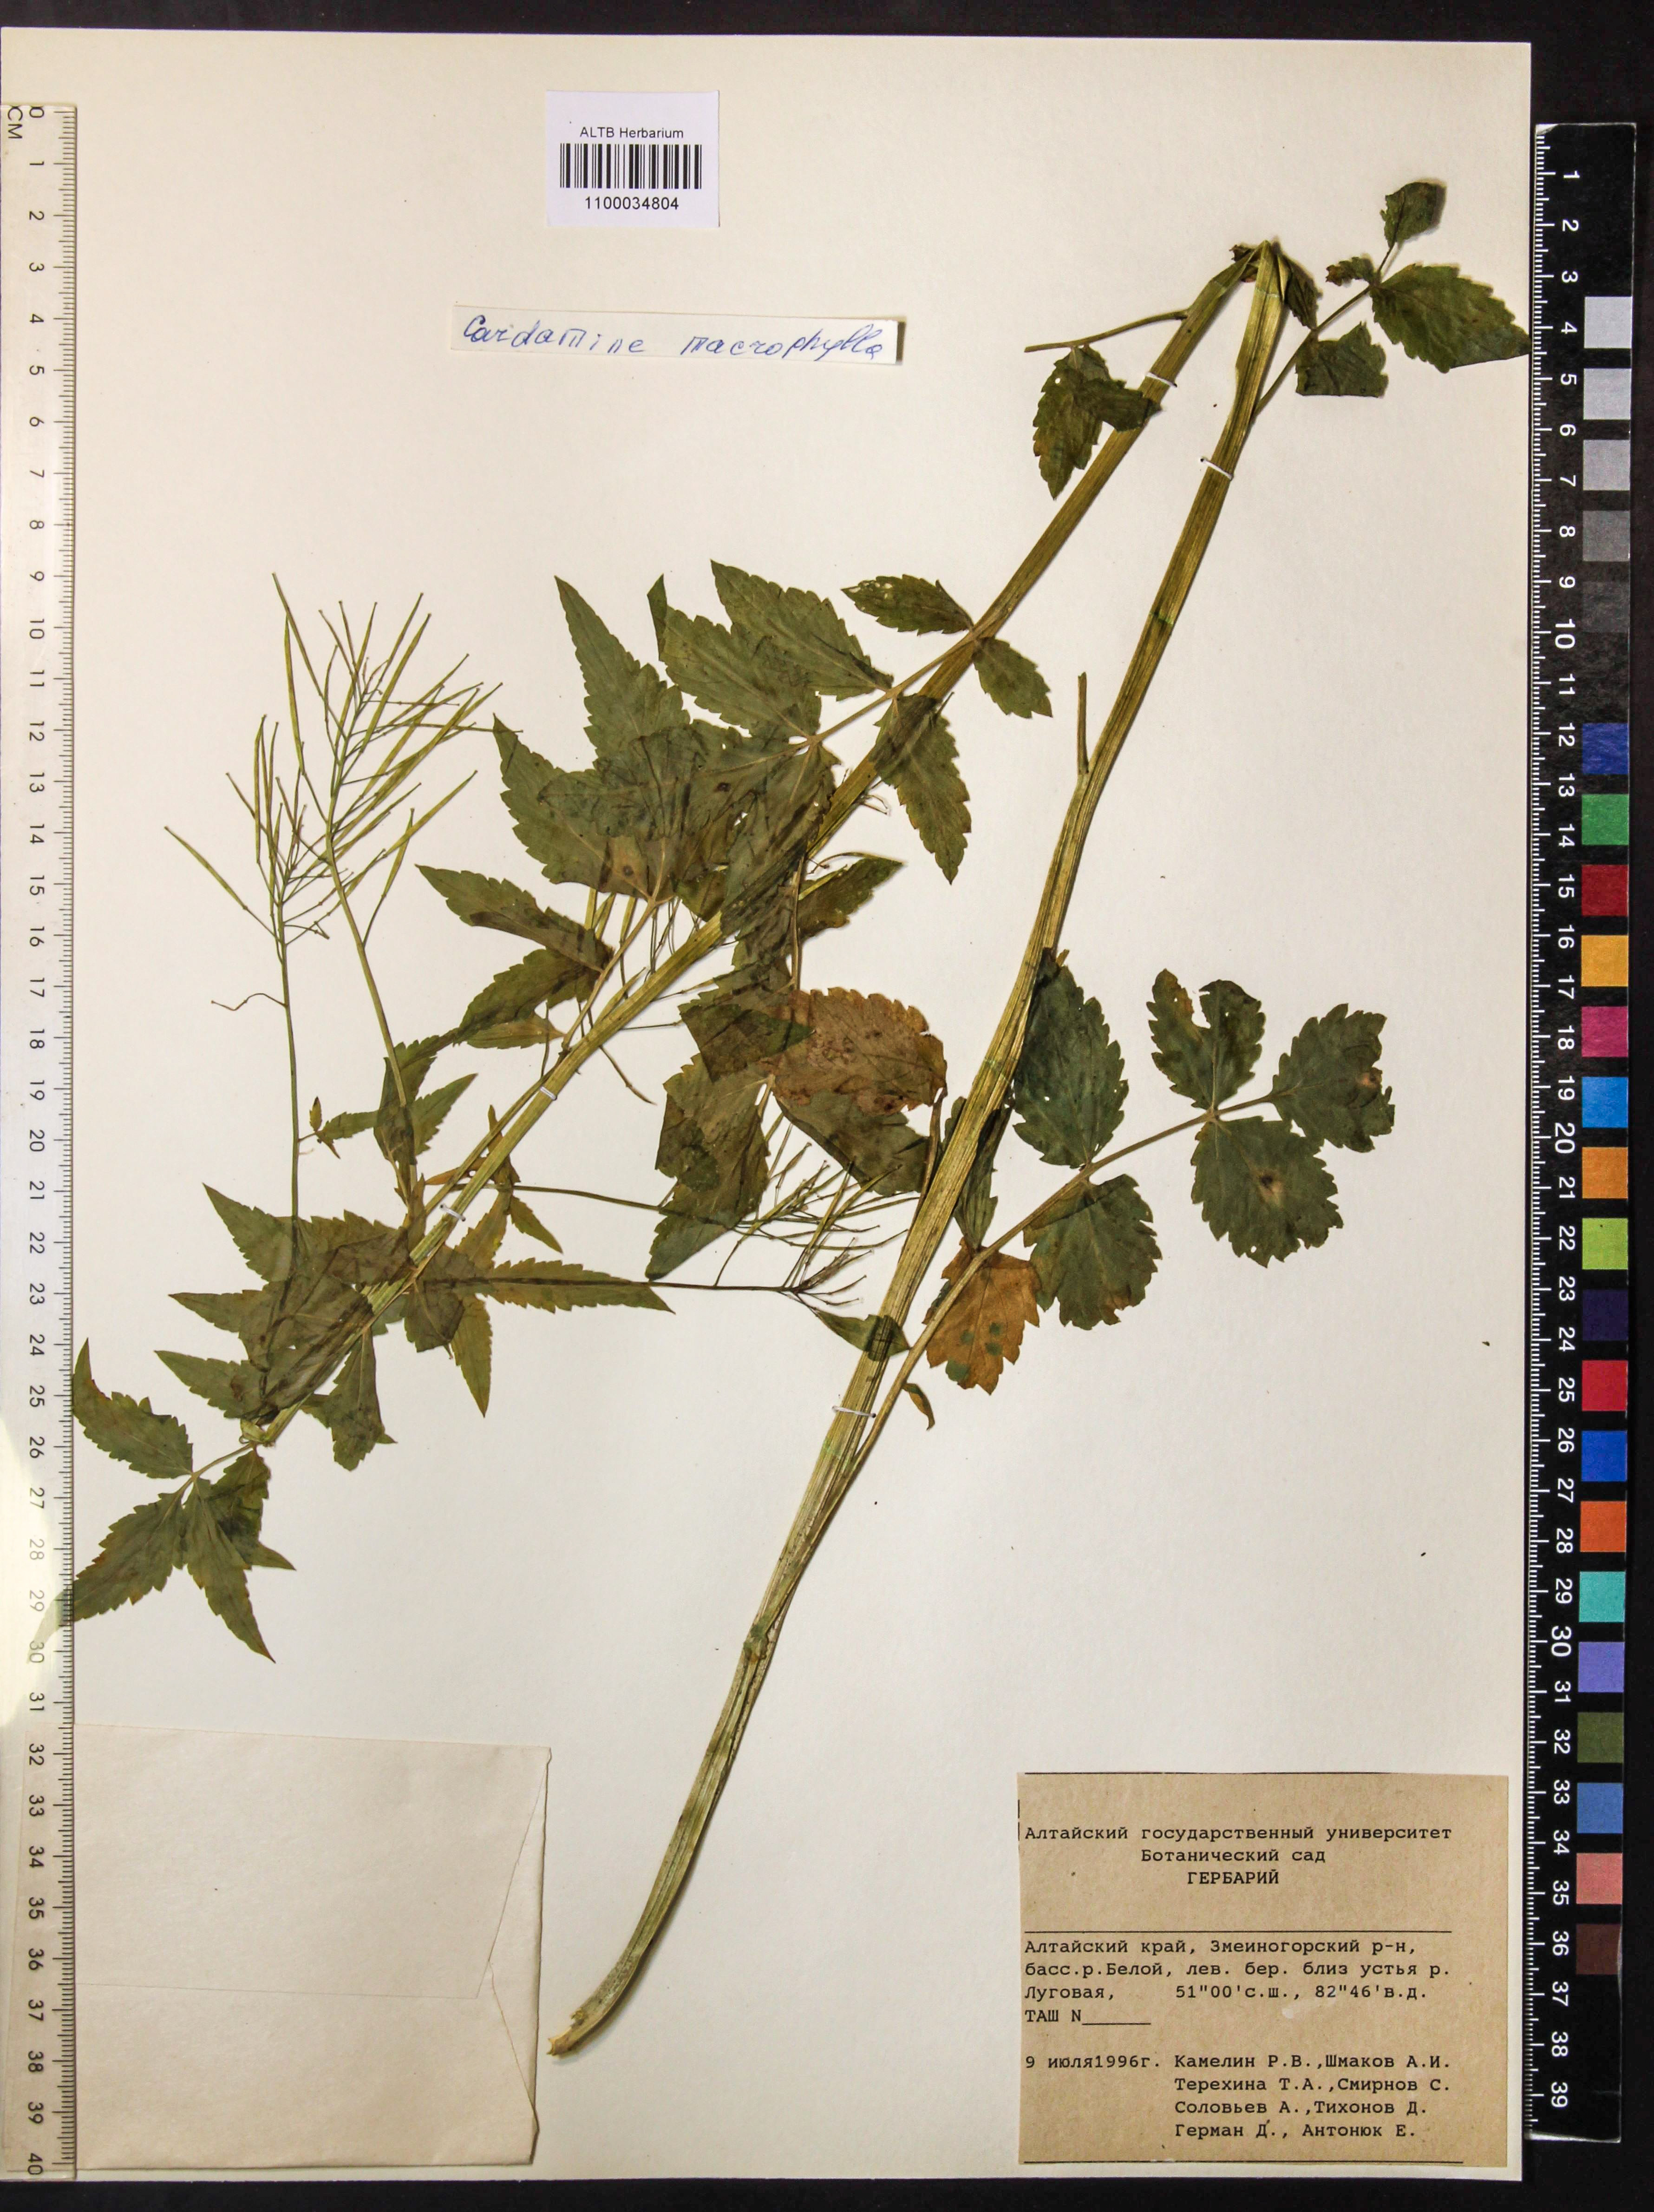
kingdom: Plantae
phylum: Tracheophyta
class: Magnoliopsida
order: Brassicales
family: Brassicaceae
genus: Cardamine
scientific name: Cardamine macrophylla
